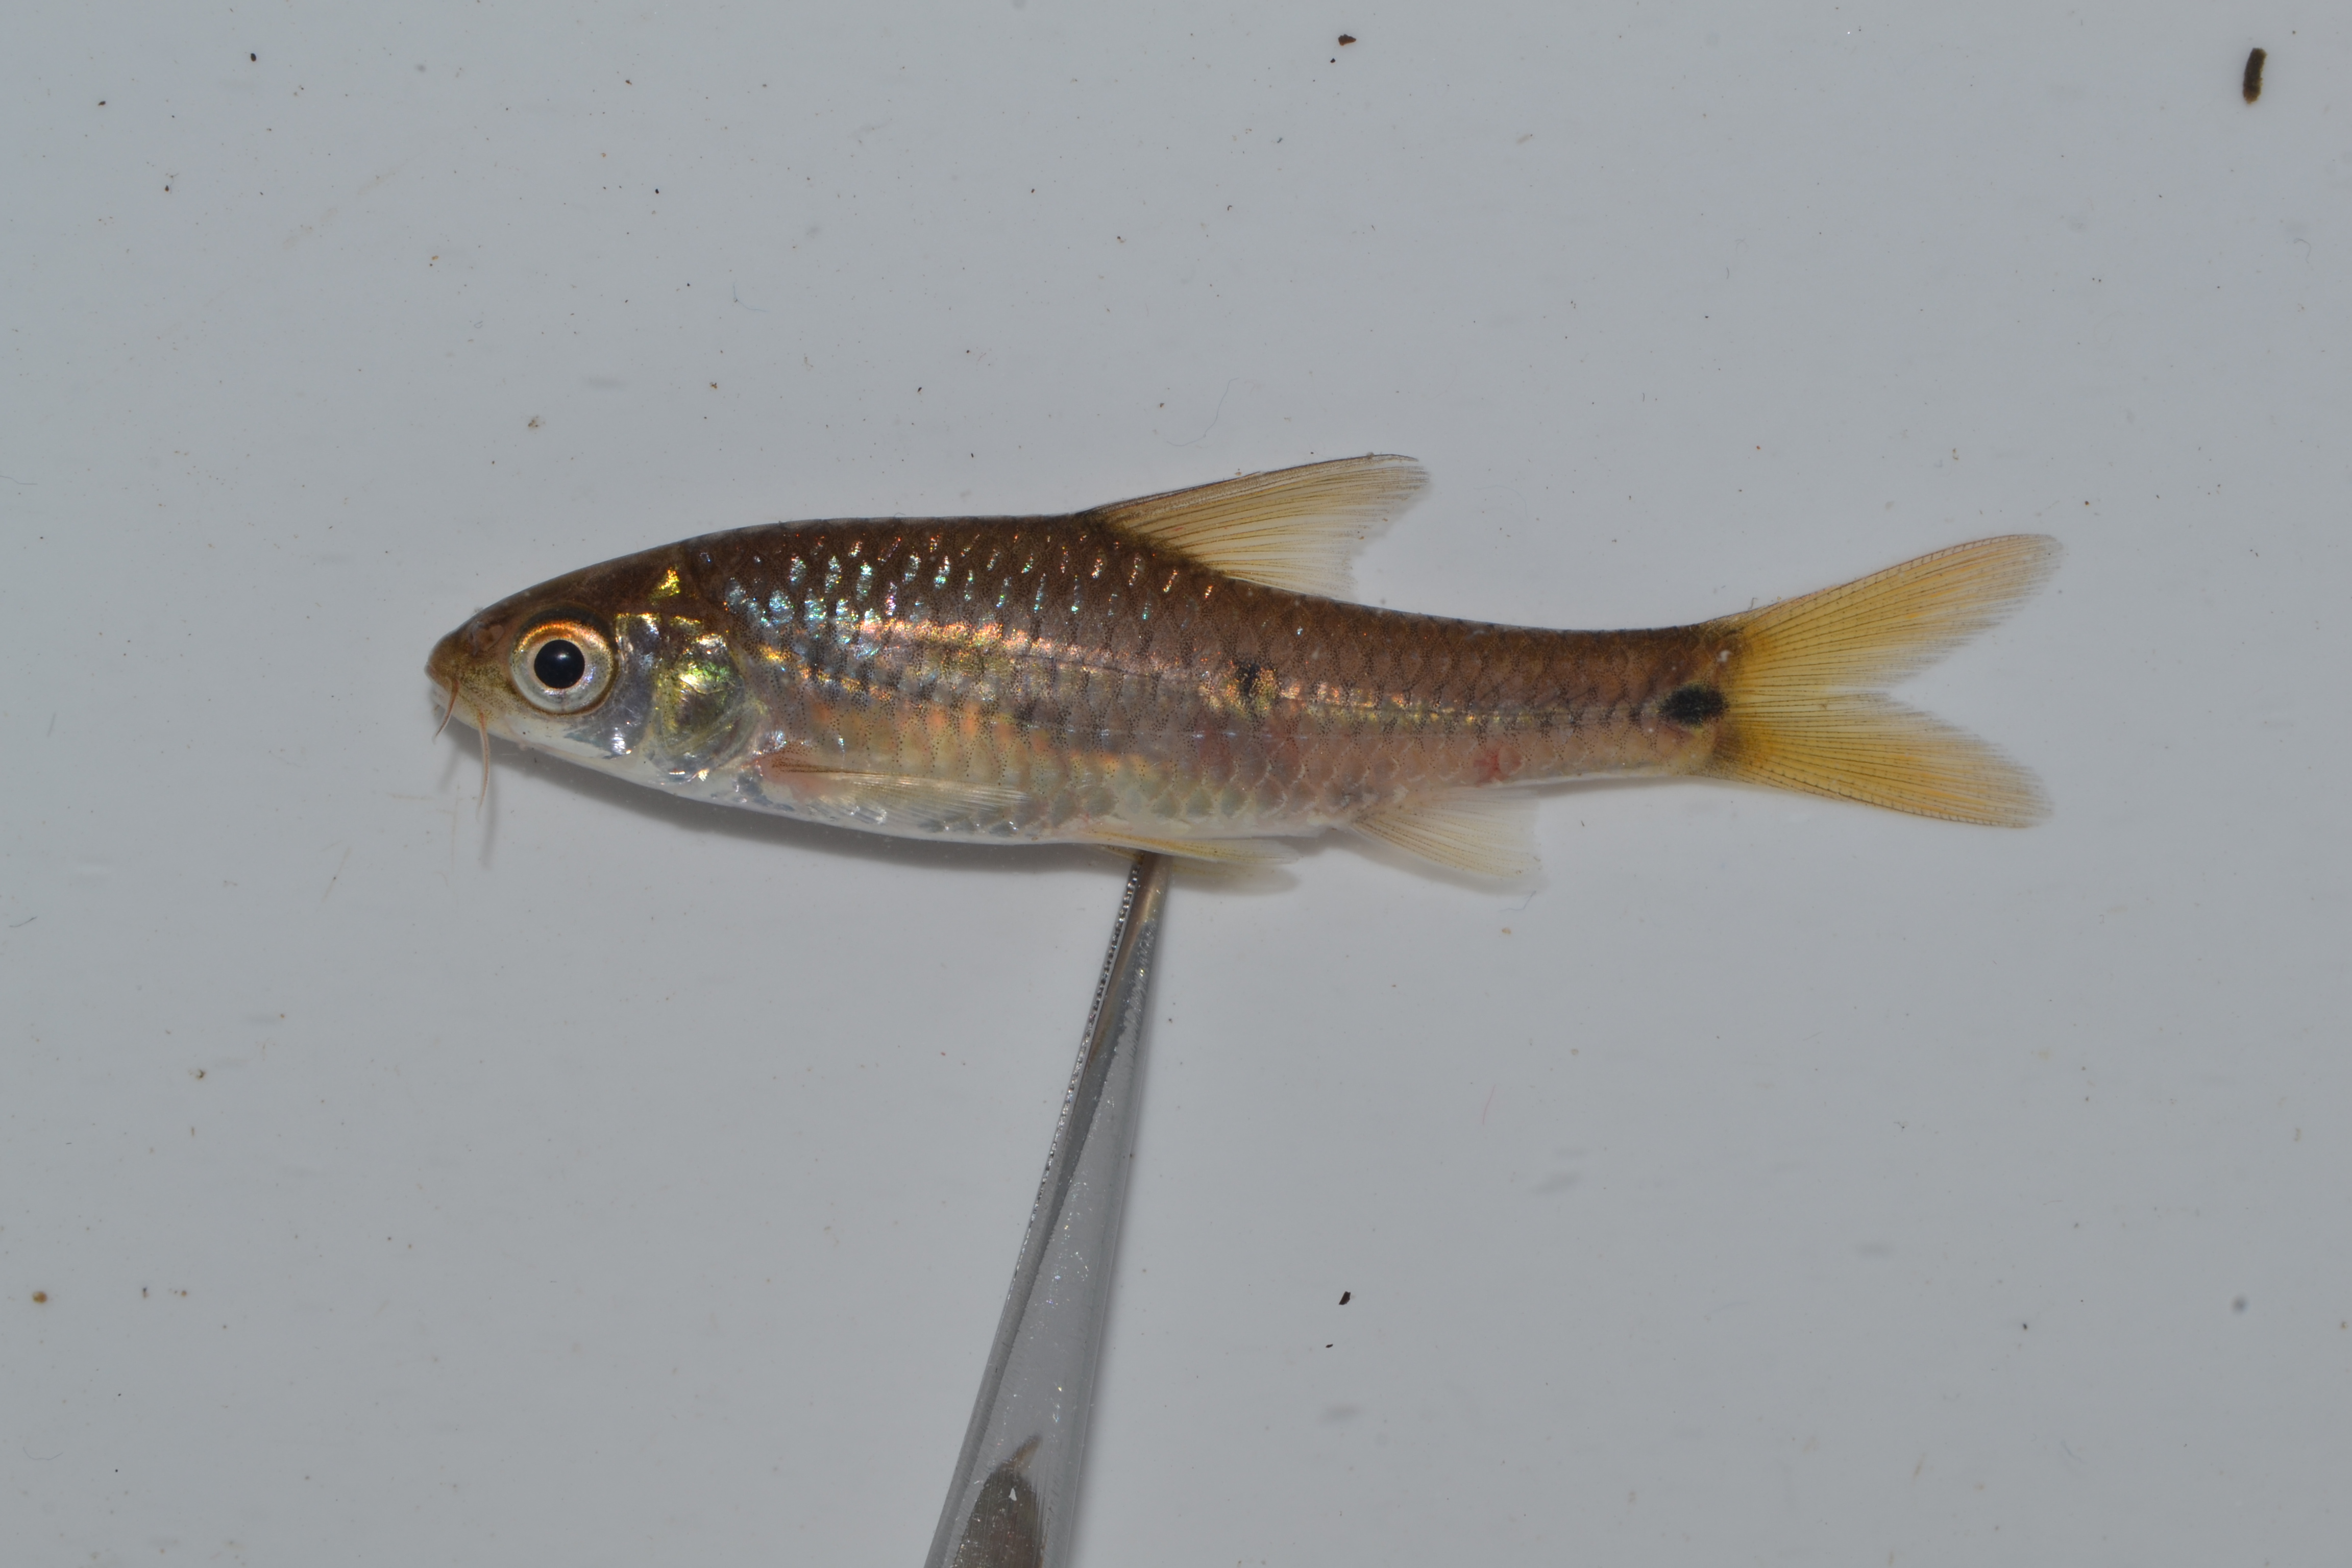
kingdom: Animalia
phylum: Chordata
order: Cypriniformes
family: Cyprinidae
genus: Enteromius
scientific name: Enteromius trimaculatus
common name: Threespot barb
